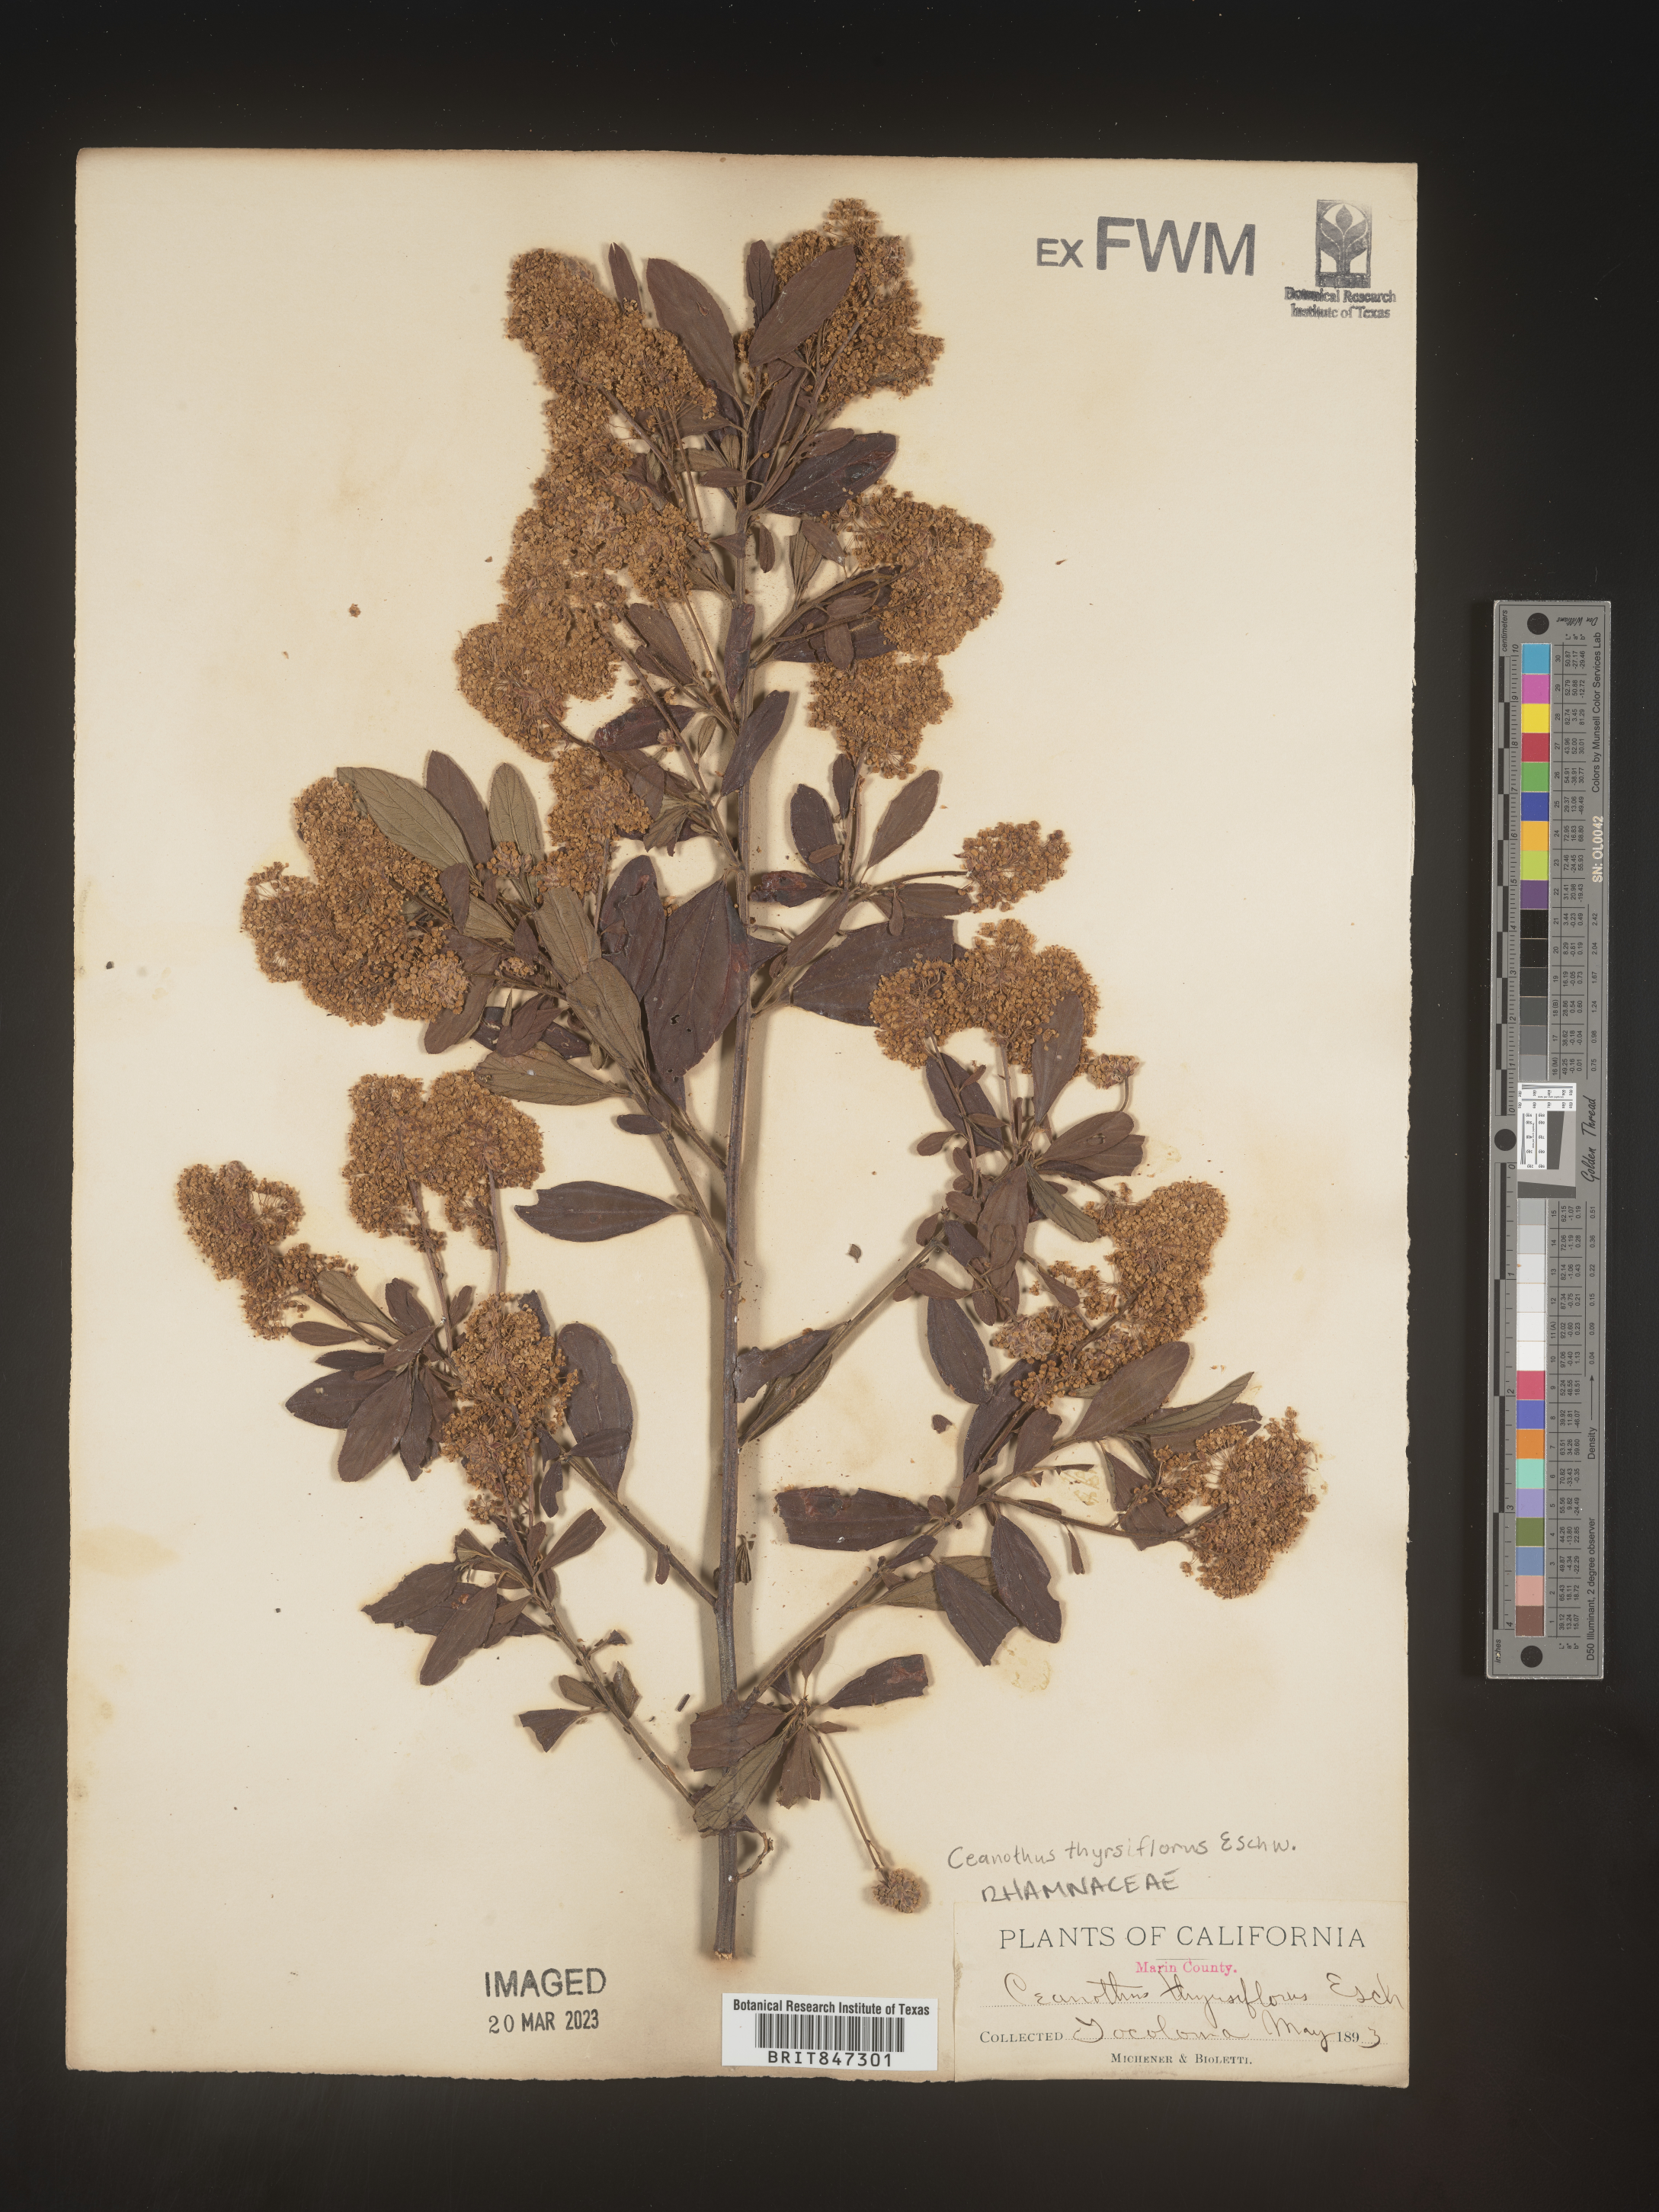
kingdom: Plantae
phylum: Tracheophyta
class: Magnoliopsida
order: Rosales
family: Rhamnaceae
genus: Ceanothus
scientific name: Ceanothus
